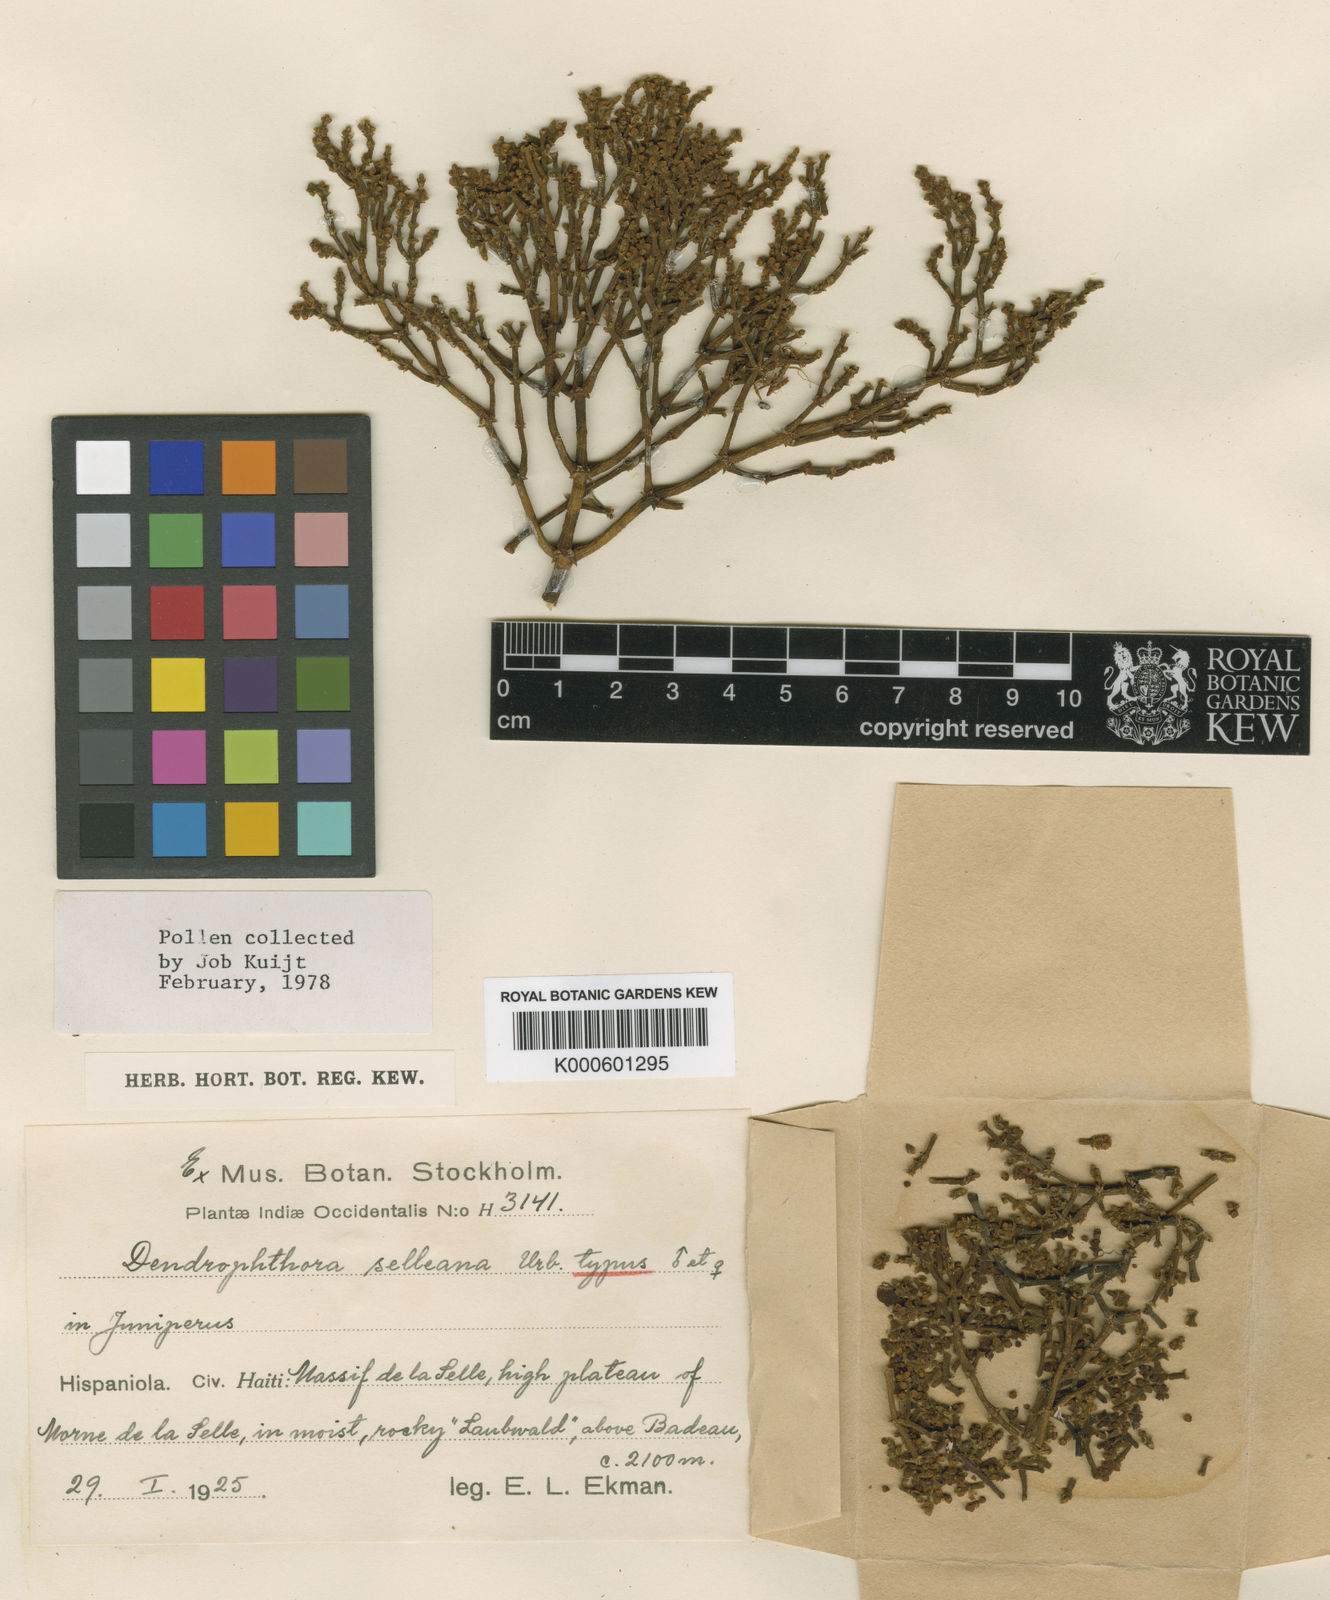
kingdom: Plantae
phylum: Tracheophyta
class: Magnoliopsida
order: Santalales
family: Viscaceae
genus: Dendrophthora
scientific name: Dendrophthora cupressoides
